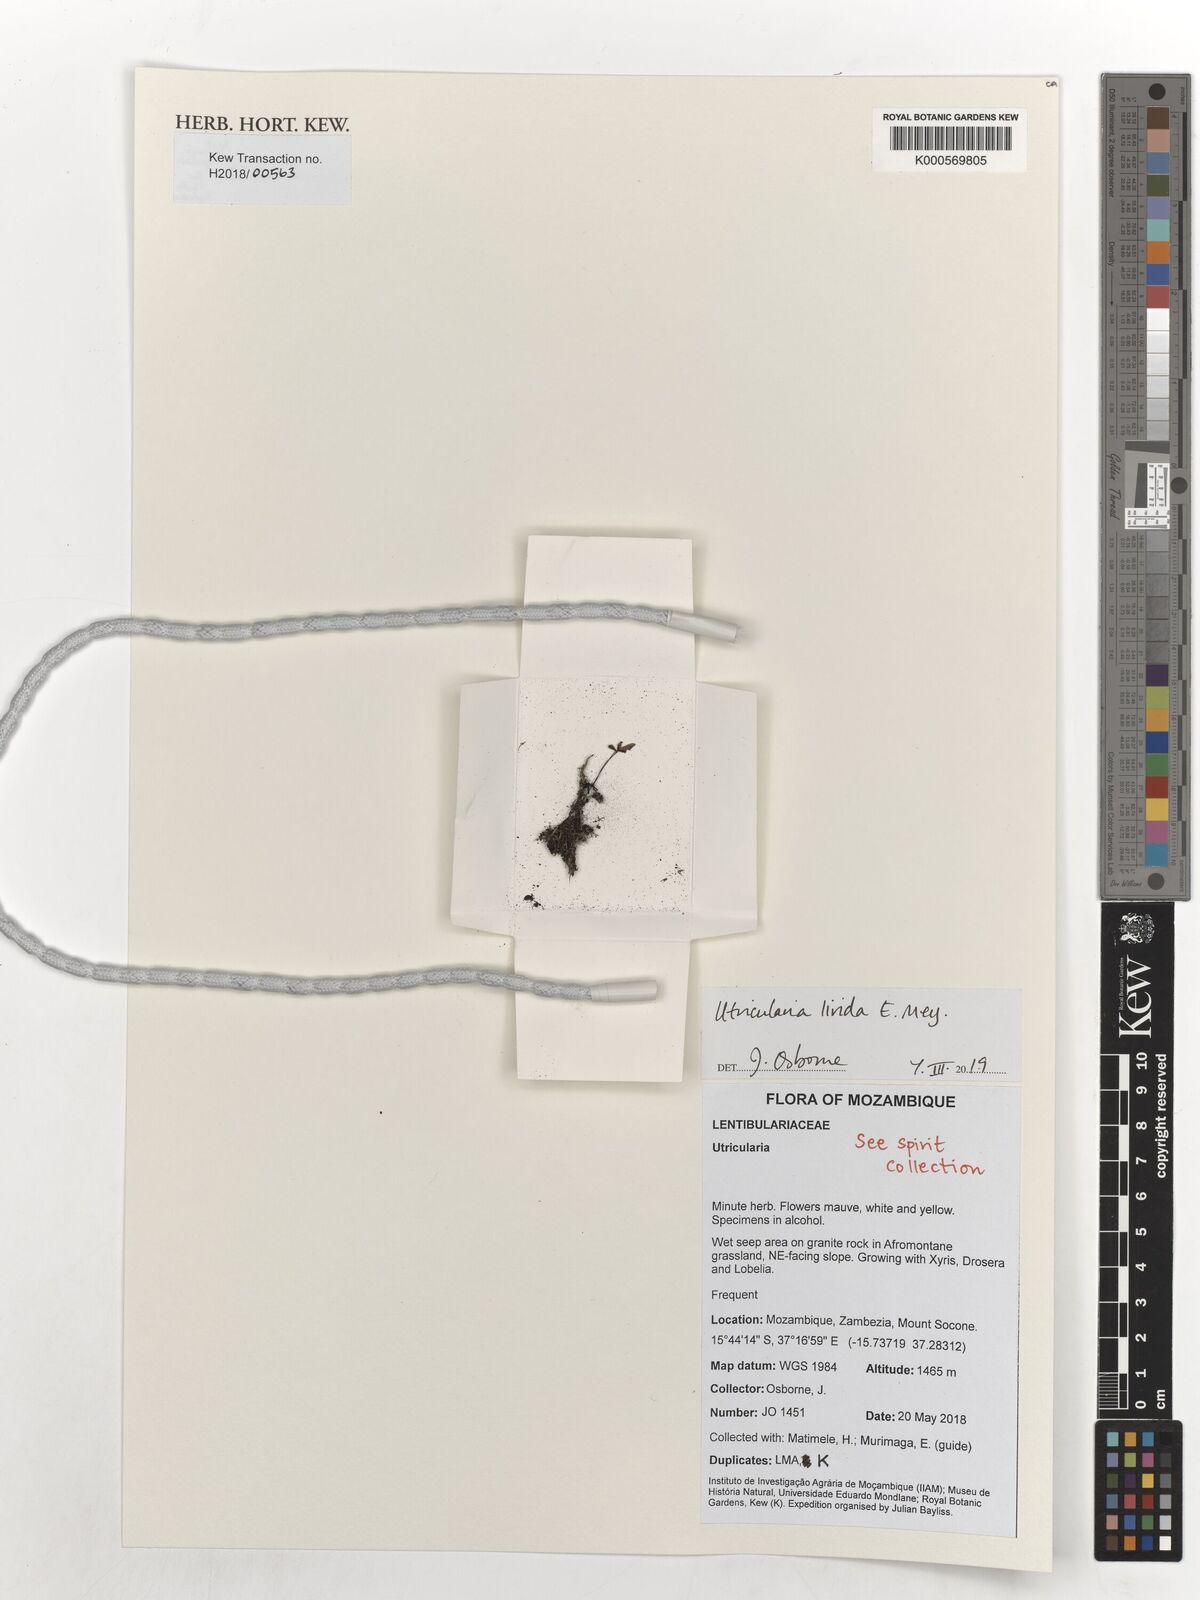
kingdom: Plantae
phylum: Tracheophyta
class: Magnoliopsida
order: Lamiales
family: Lentibulariaceae
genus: Utricularia
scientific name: Utricularia livida
